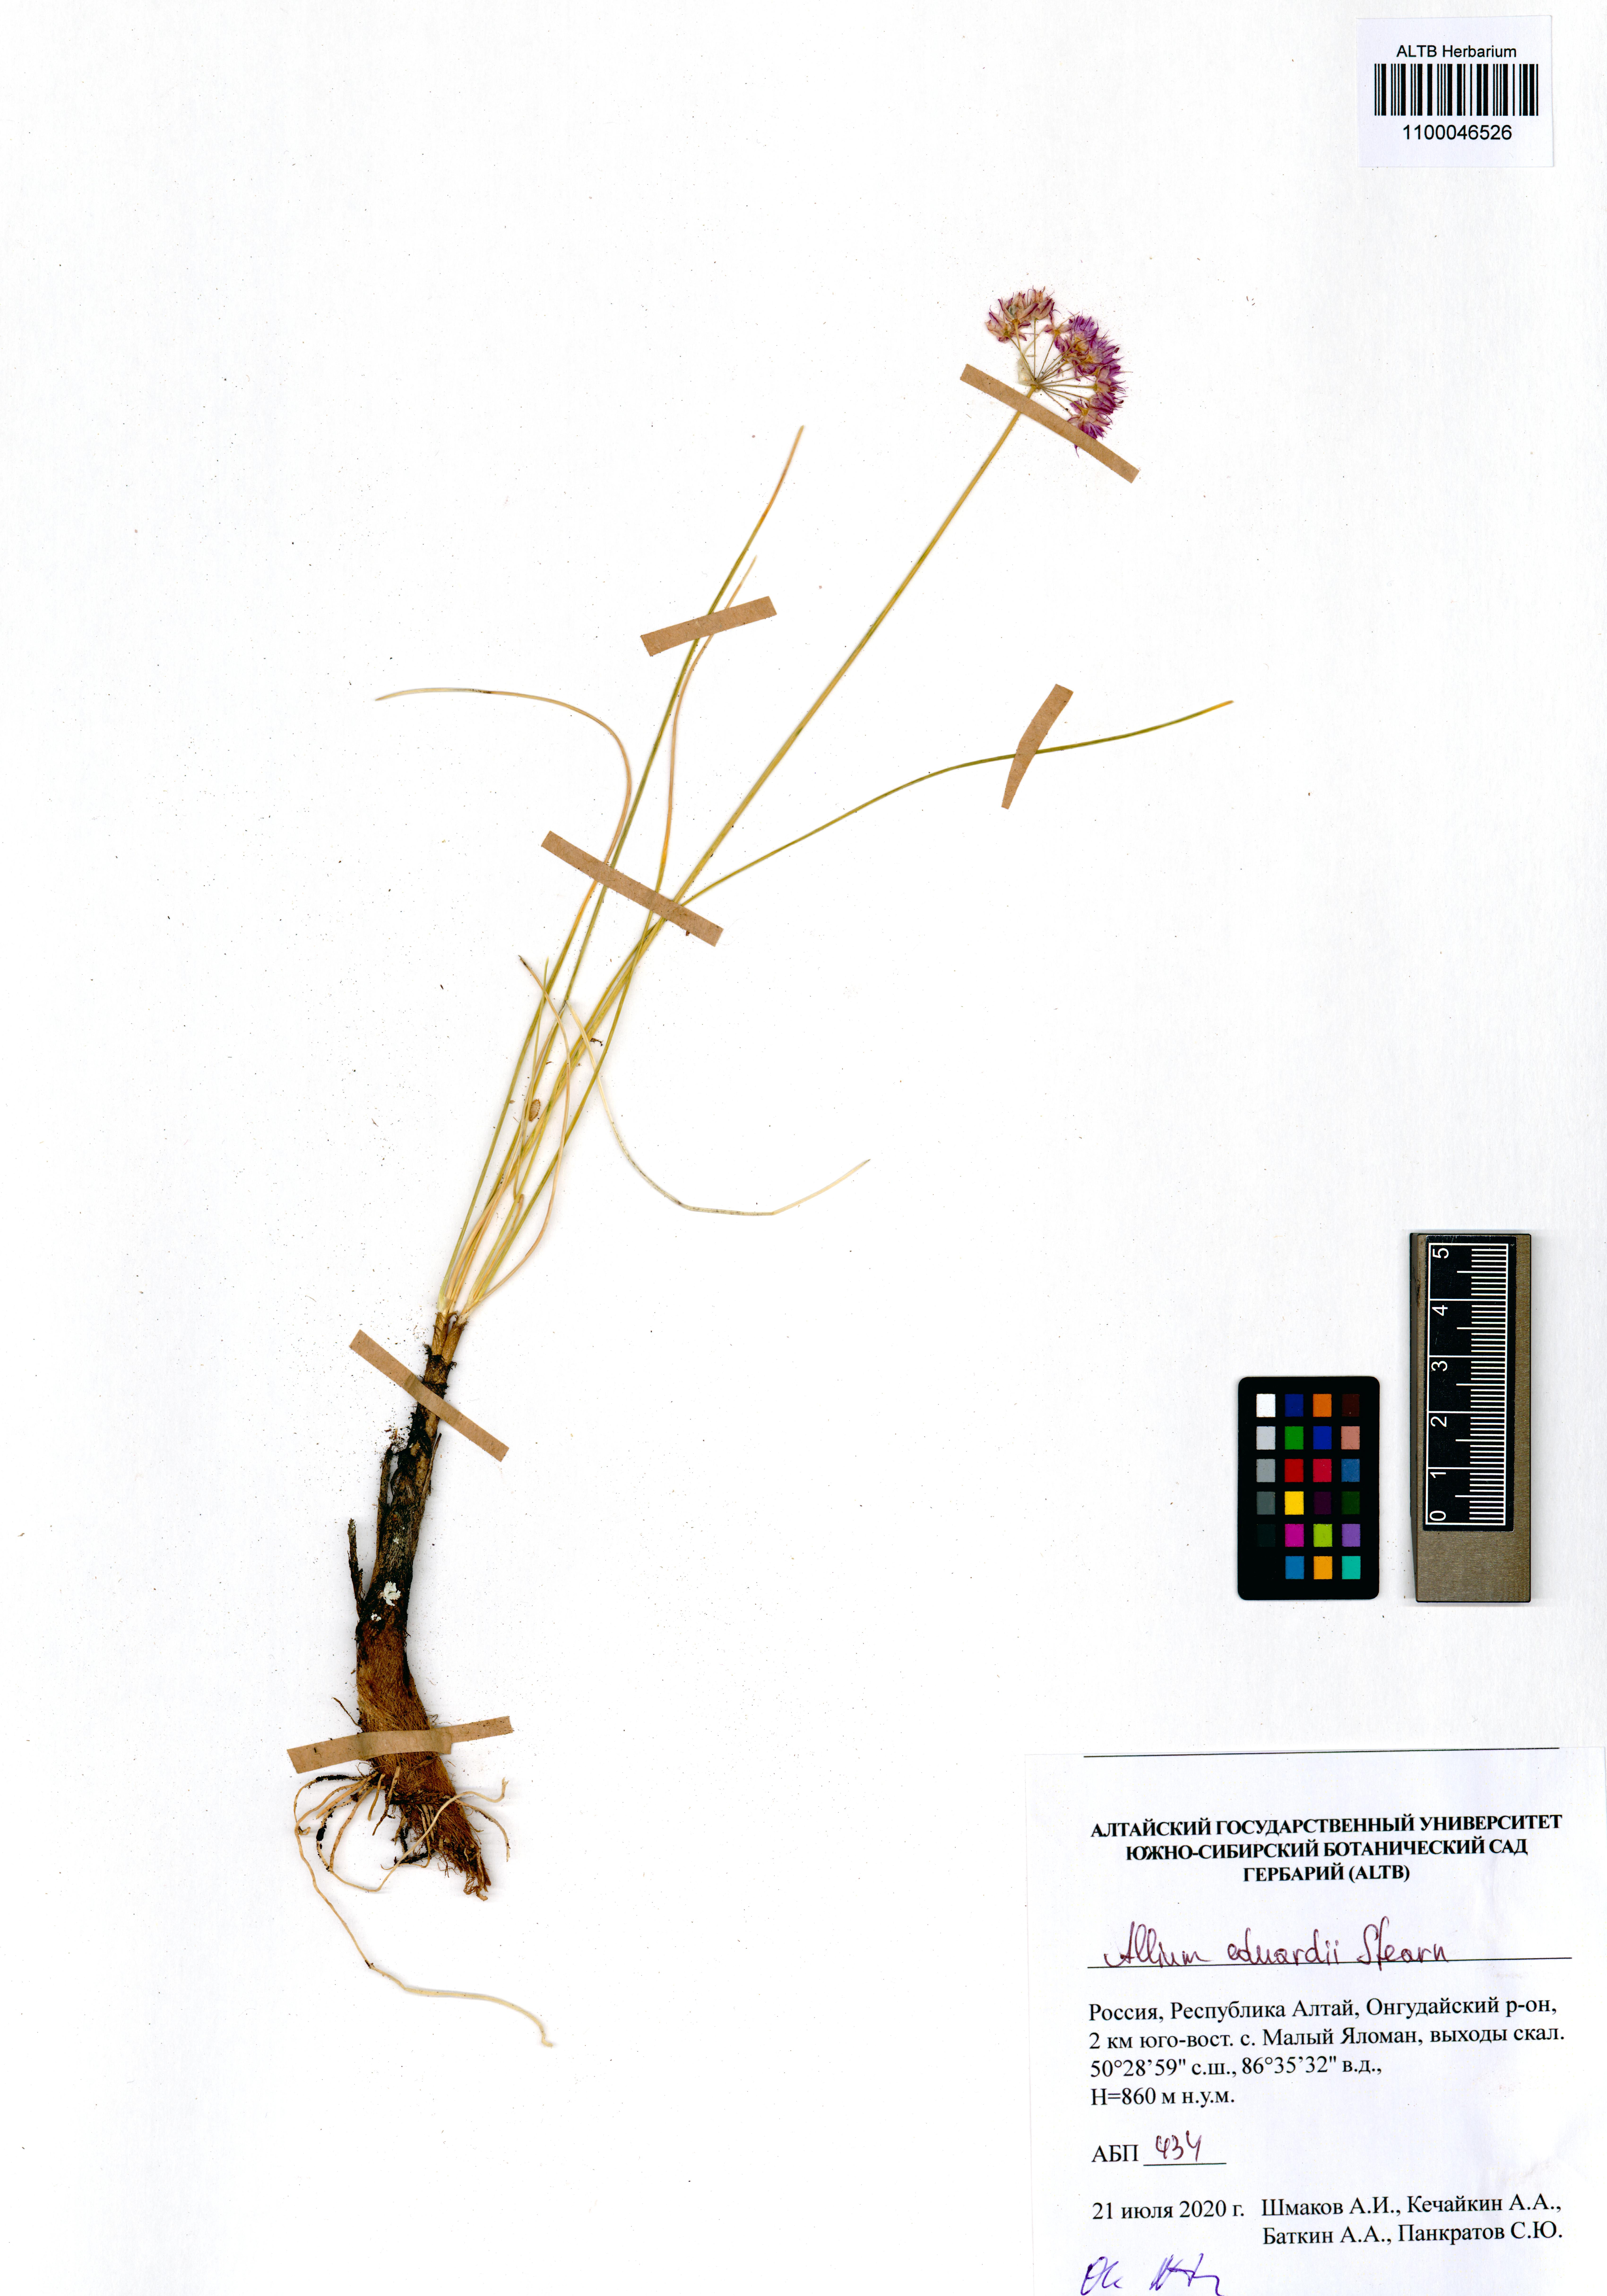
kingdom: Plantae
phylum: Tracheophyta
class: Liliopsida
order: Asparagales
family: Amaryllidaceae
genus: Allium
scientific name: Allium eduardi
